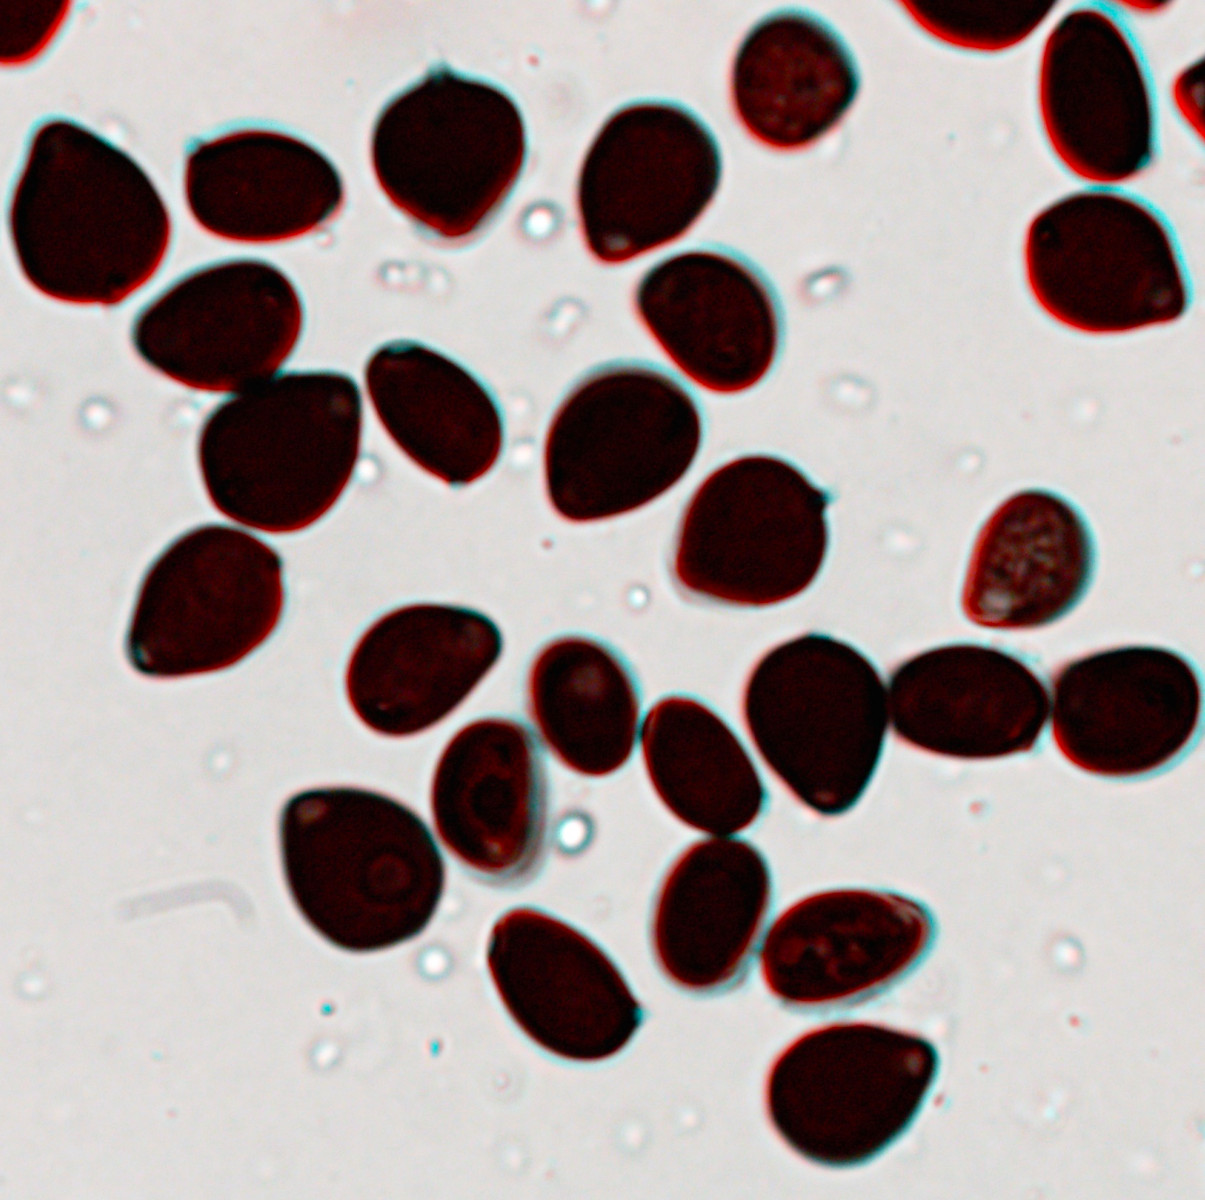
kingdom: Fungi
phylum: Basidiomycota
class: Agaricomycetes
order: Agaricales
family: Psathyrellaceae
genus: Parasola
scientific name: Parasola kuehneri
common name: skygge-hjulhat
